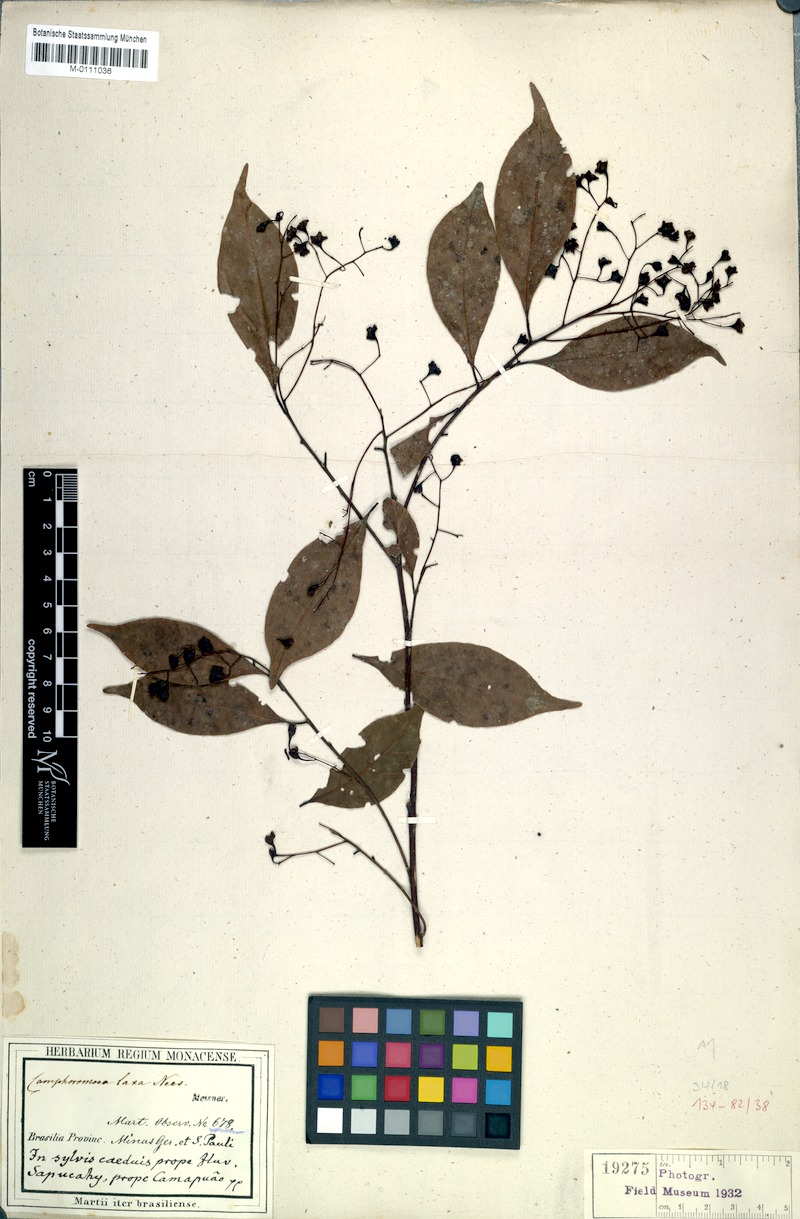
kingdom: Plantae
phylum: Tracheophyta
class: Magnoliopsida
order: Laurales
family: Lauraceae
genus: Ocotea
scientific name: Ocotea laxa
